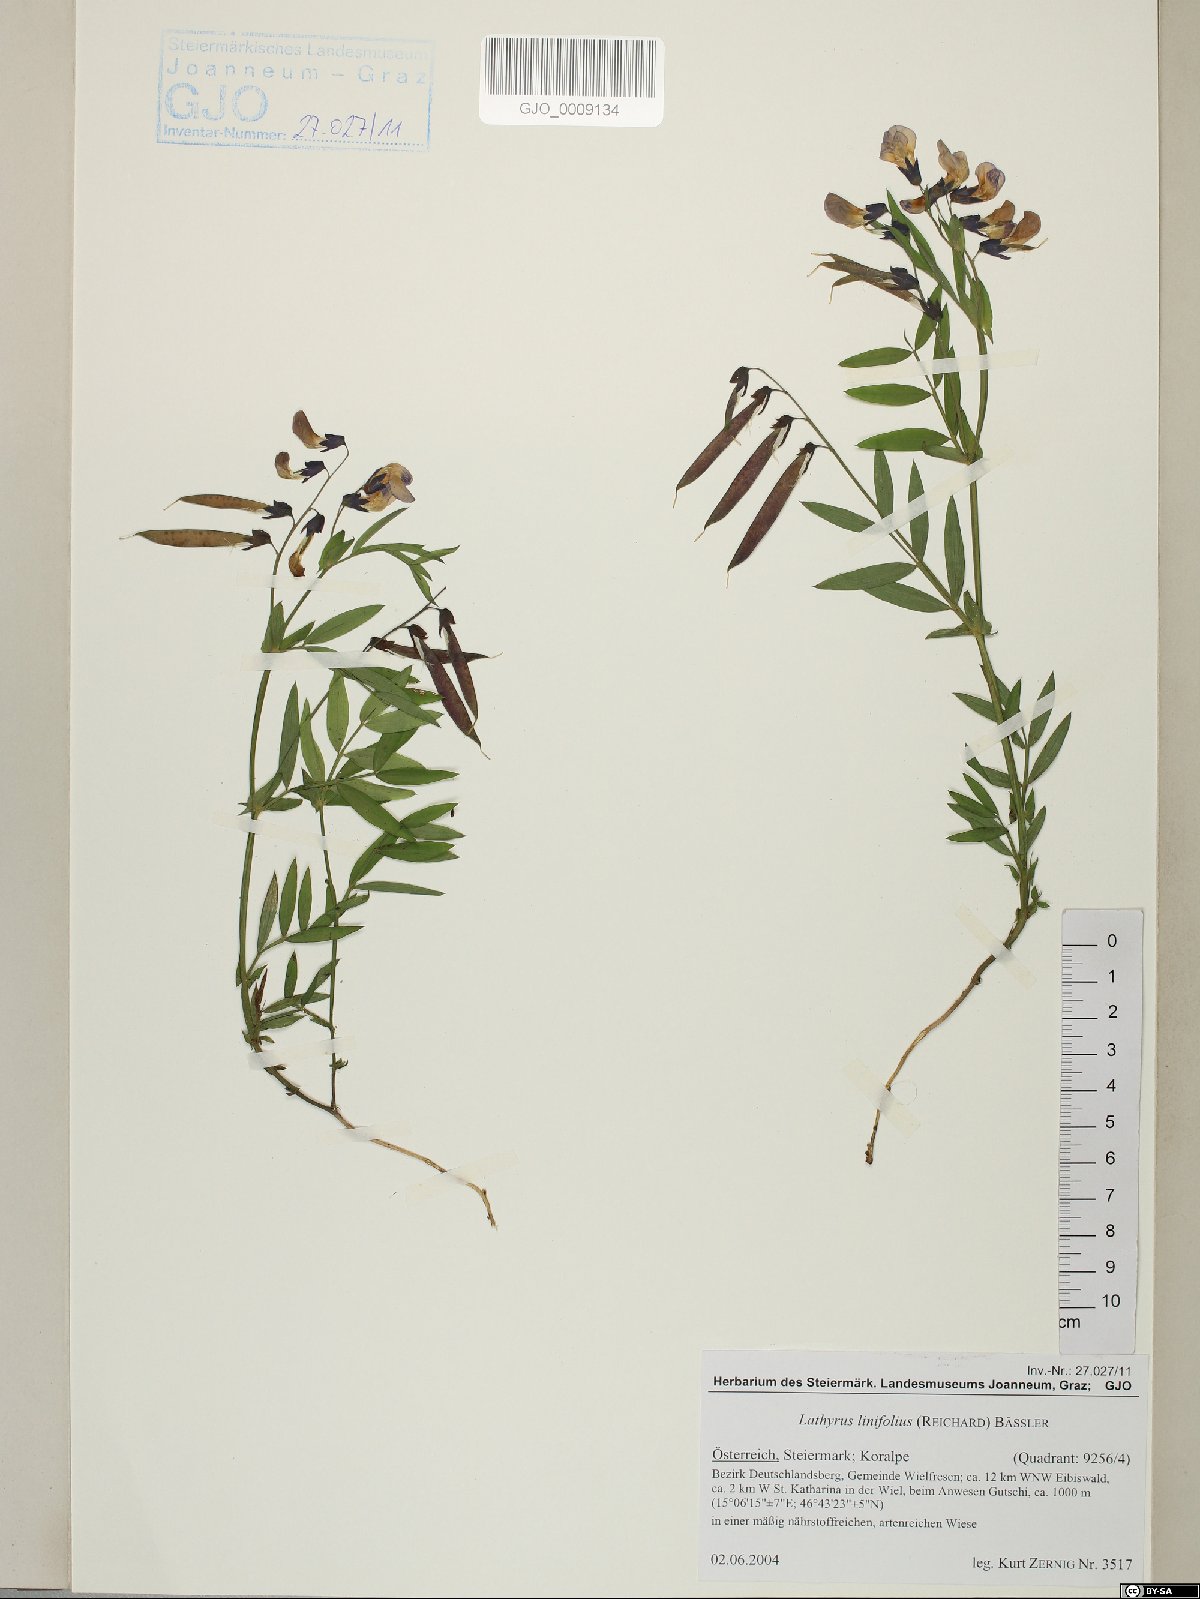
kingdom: Plantae
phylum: Tracheophyta
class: Magnoliopsida
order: Fabales
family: Fabaceae
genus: Lathyrus
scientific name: Lathyrus linifolius
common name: Bitter-vetch
